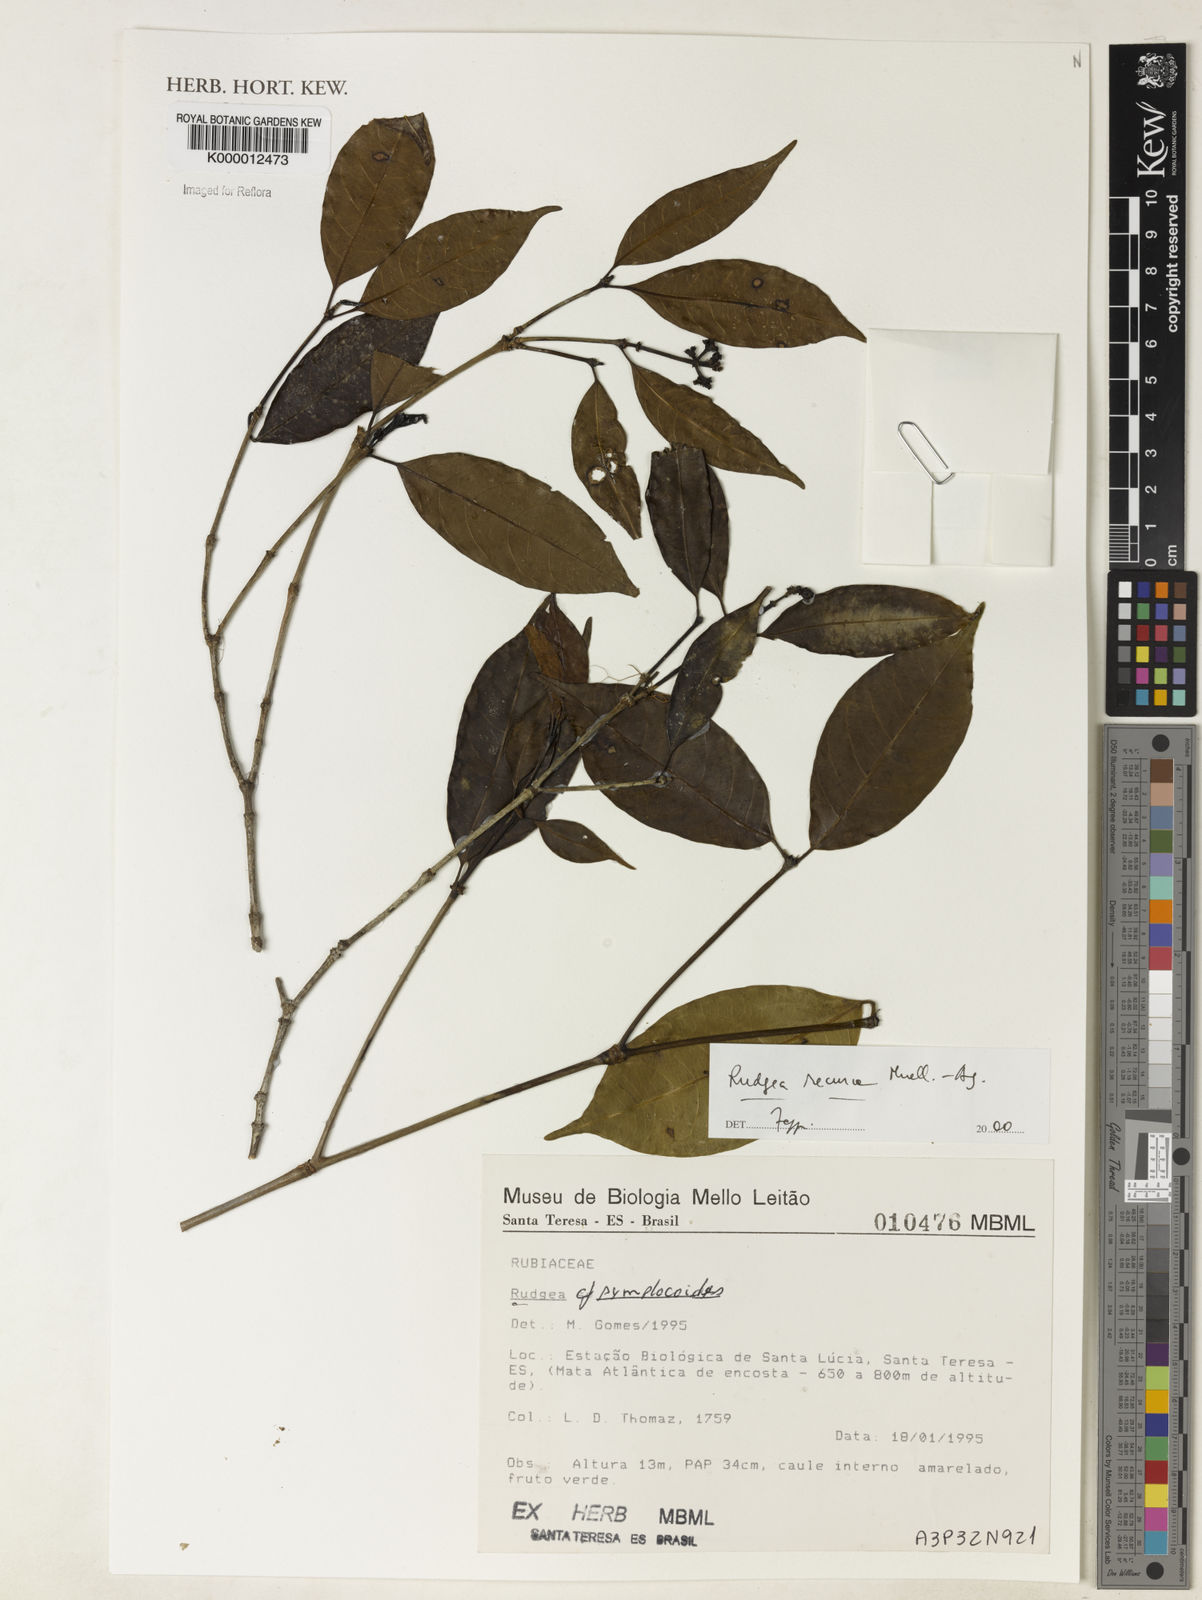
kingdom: Plantae
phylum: Tracheophyta
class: Magnoliopsida
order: Gentianales
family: Rubiaceae
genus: Rudgea
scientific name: Rudgea recurva
